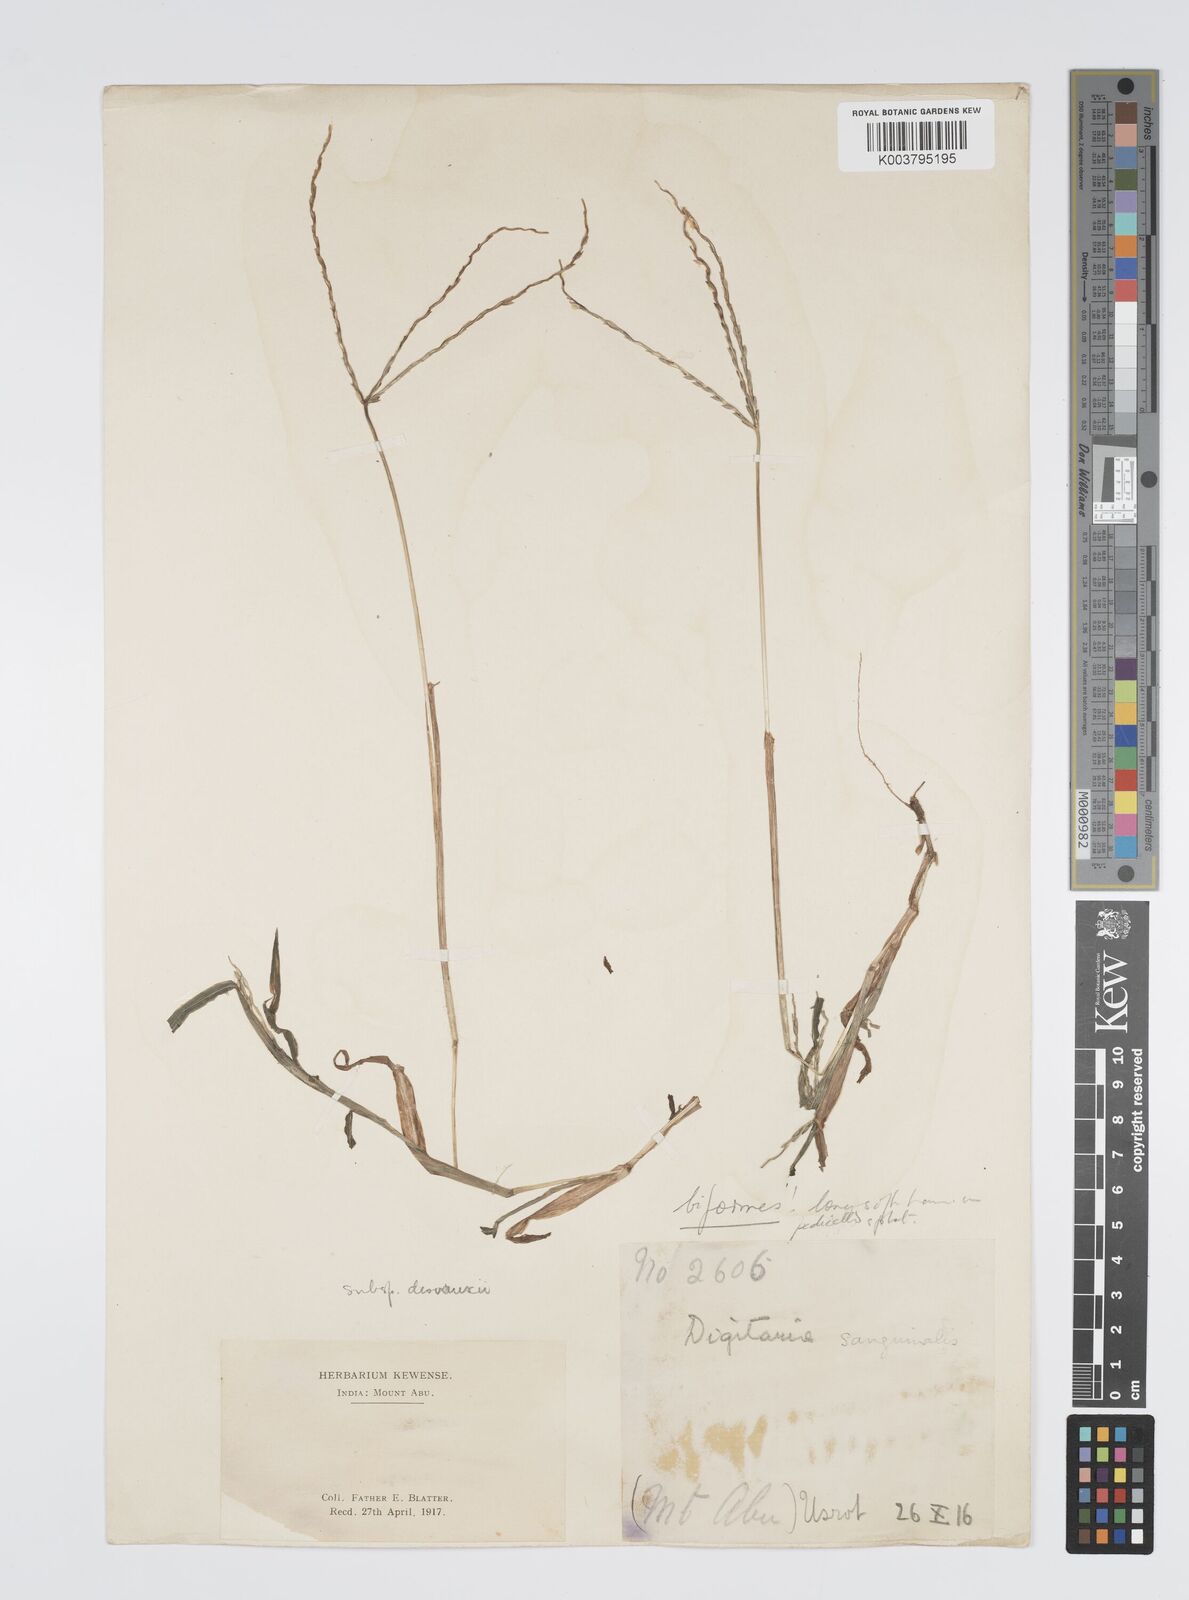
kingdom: Plantae
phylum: Tracheophyta
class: Liliopsida
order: Poales
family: Poaceae
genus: Digitaria
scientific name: Digitaria ciliaris
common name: Tropical finger-grass
